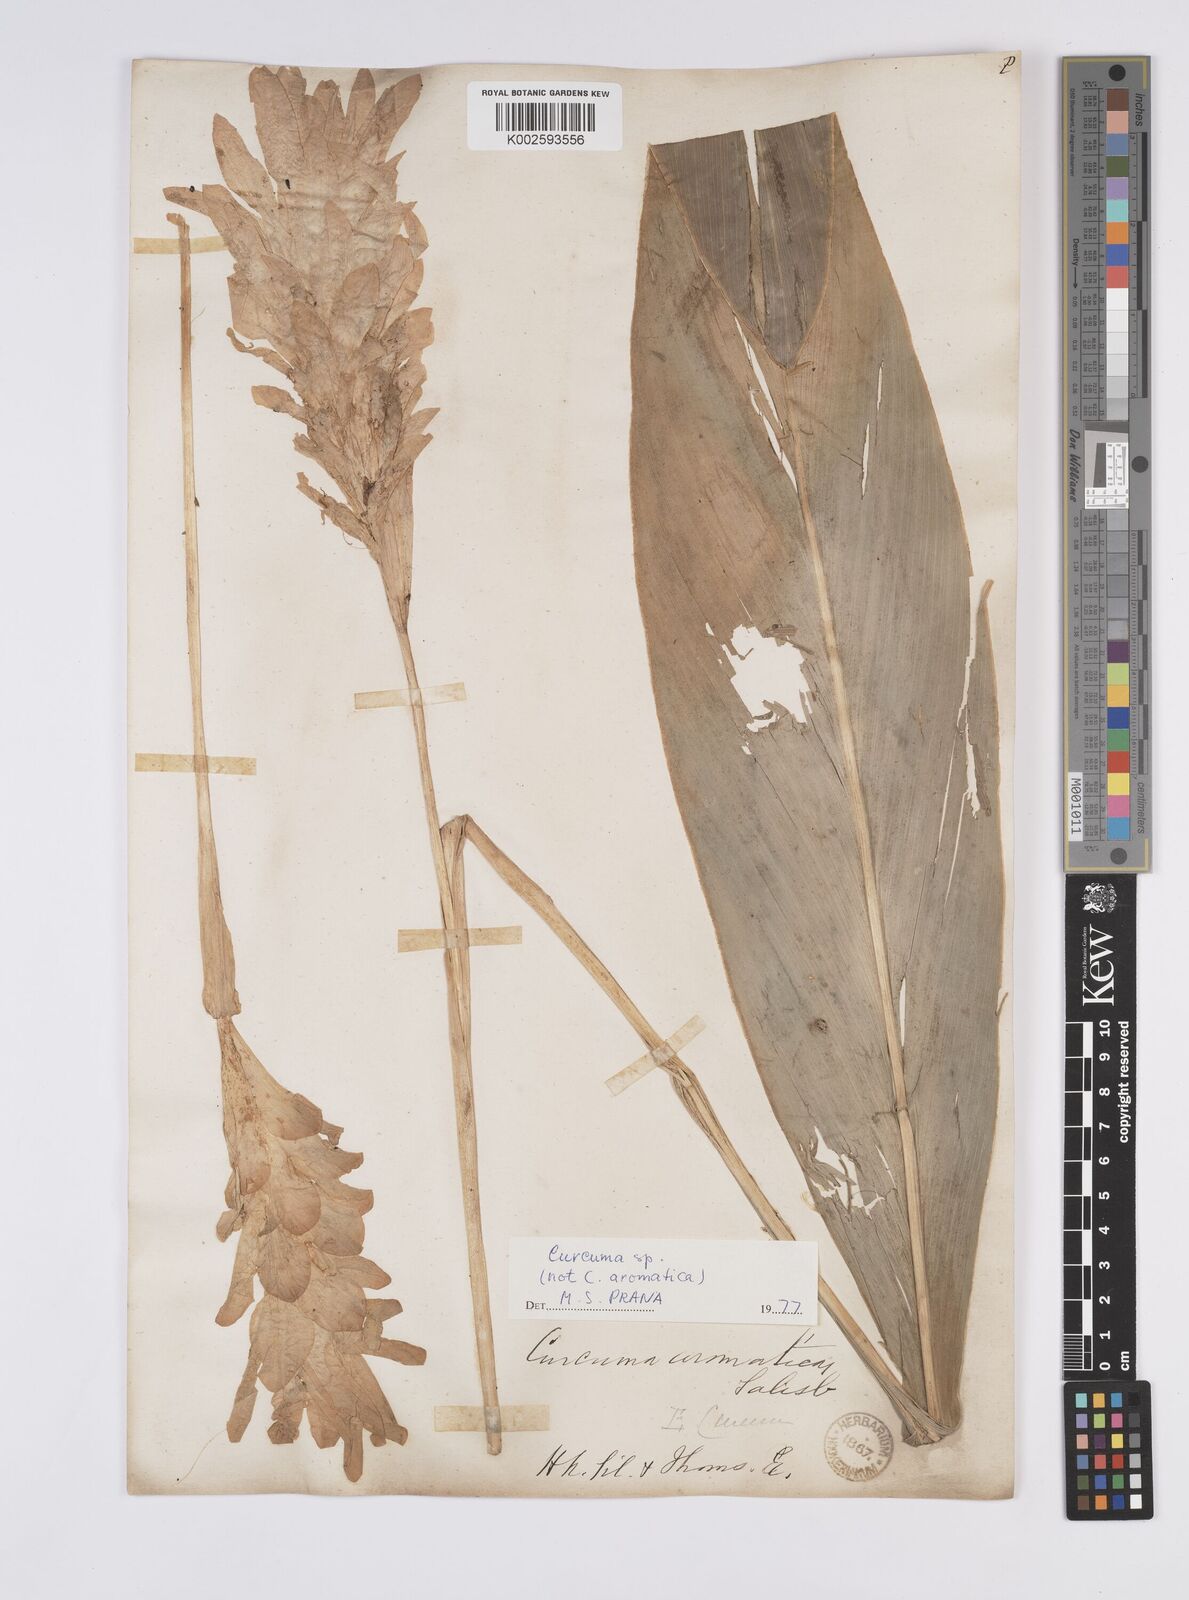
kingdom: Plantae
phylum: Tracheophyta
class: Liliopsida
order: Zingiberales
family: Zingiberaceae
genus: Curcuma
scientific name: Curcuma aromatica
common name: Wild turmeric
